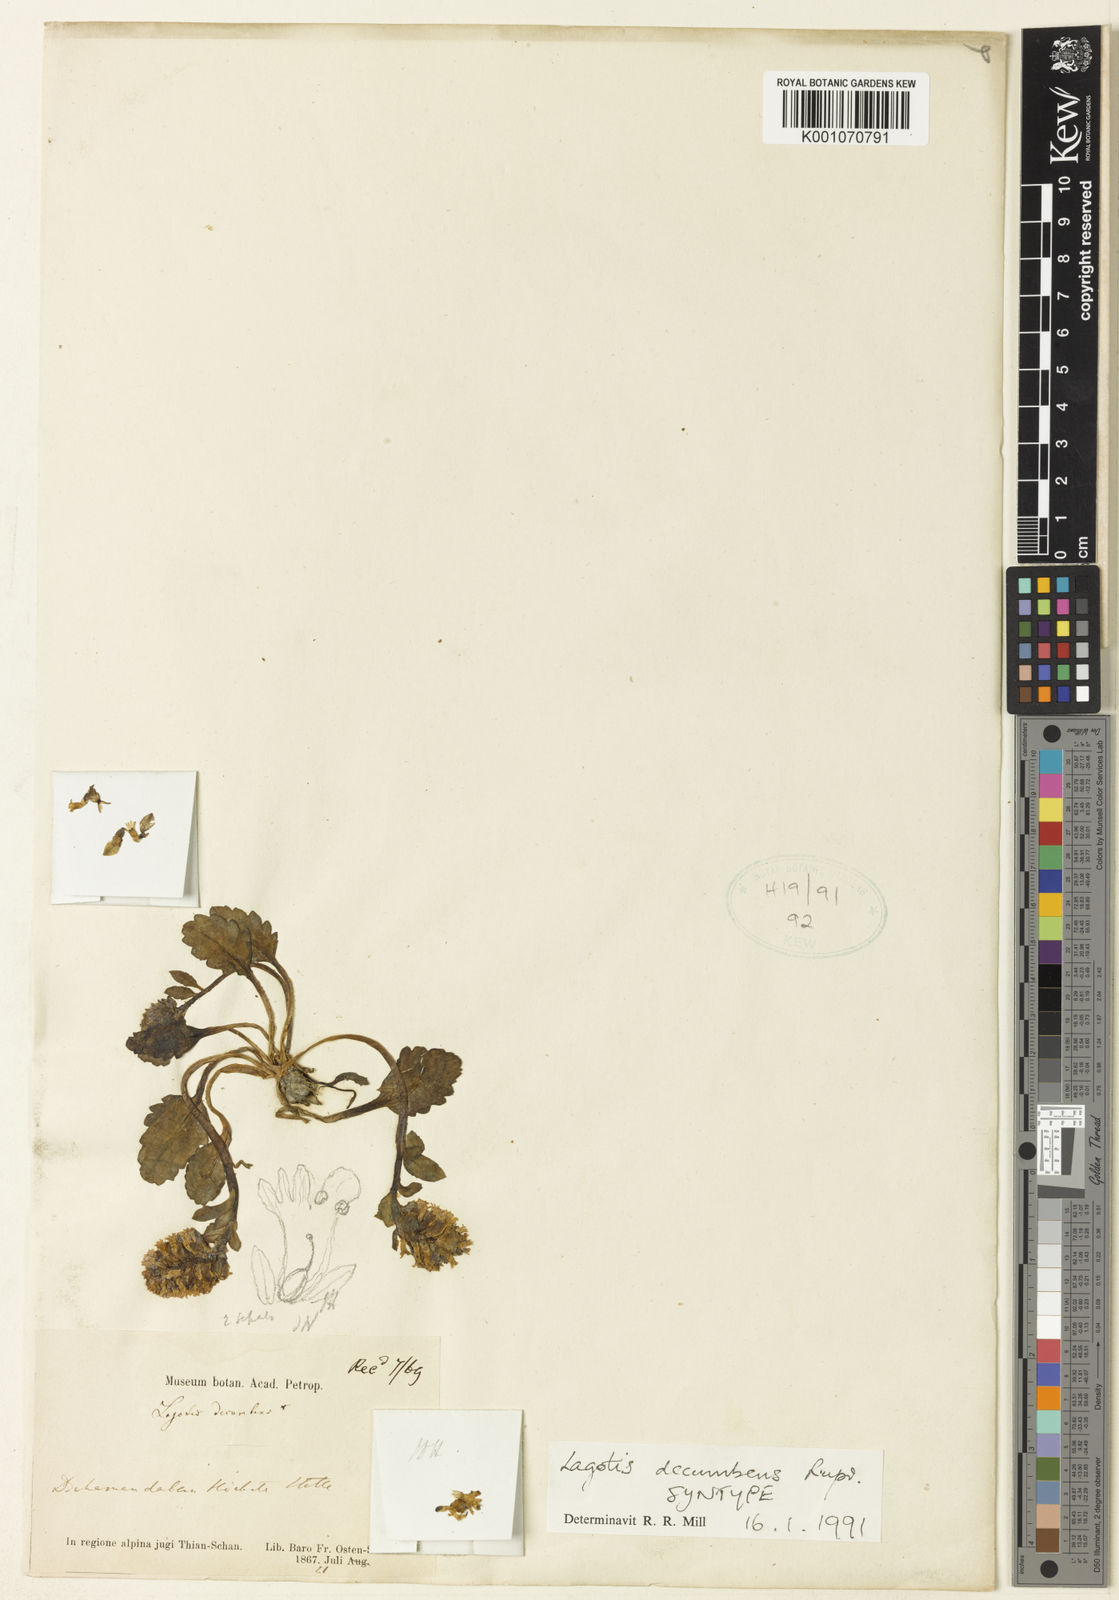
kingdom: Plantae
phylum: Tracheophyta
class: Magnoliopsida
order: Lamiales
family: Plantaginaceae
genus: Lagotis
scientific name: Lagotis decumbens
